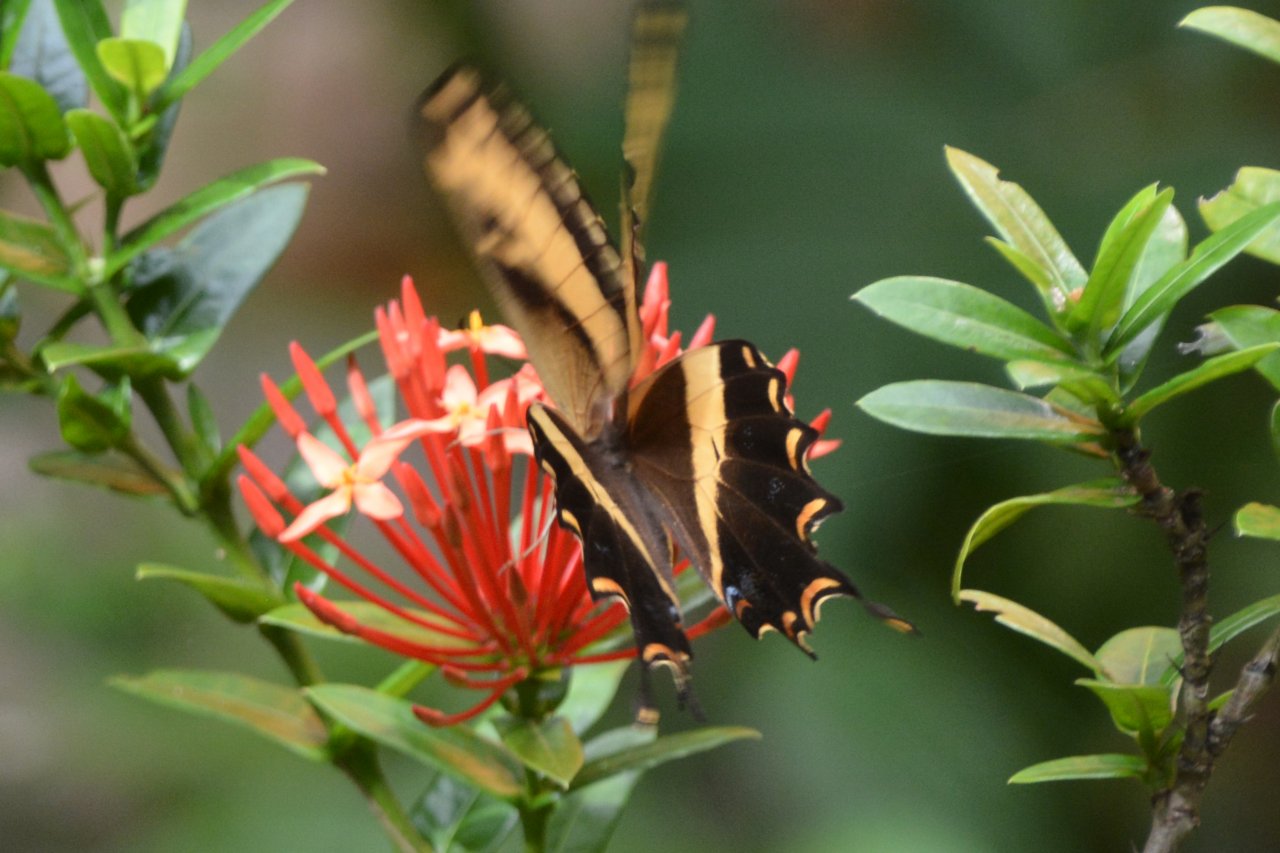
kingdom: Animalia
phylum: Arthropoda
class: Insecta
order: Lepidoptera
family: Papilionidae
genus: Papilio
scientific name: Papilio andraemon
